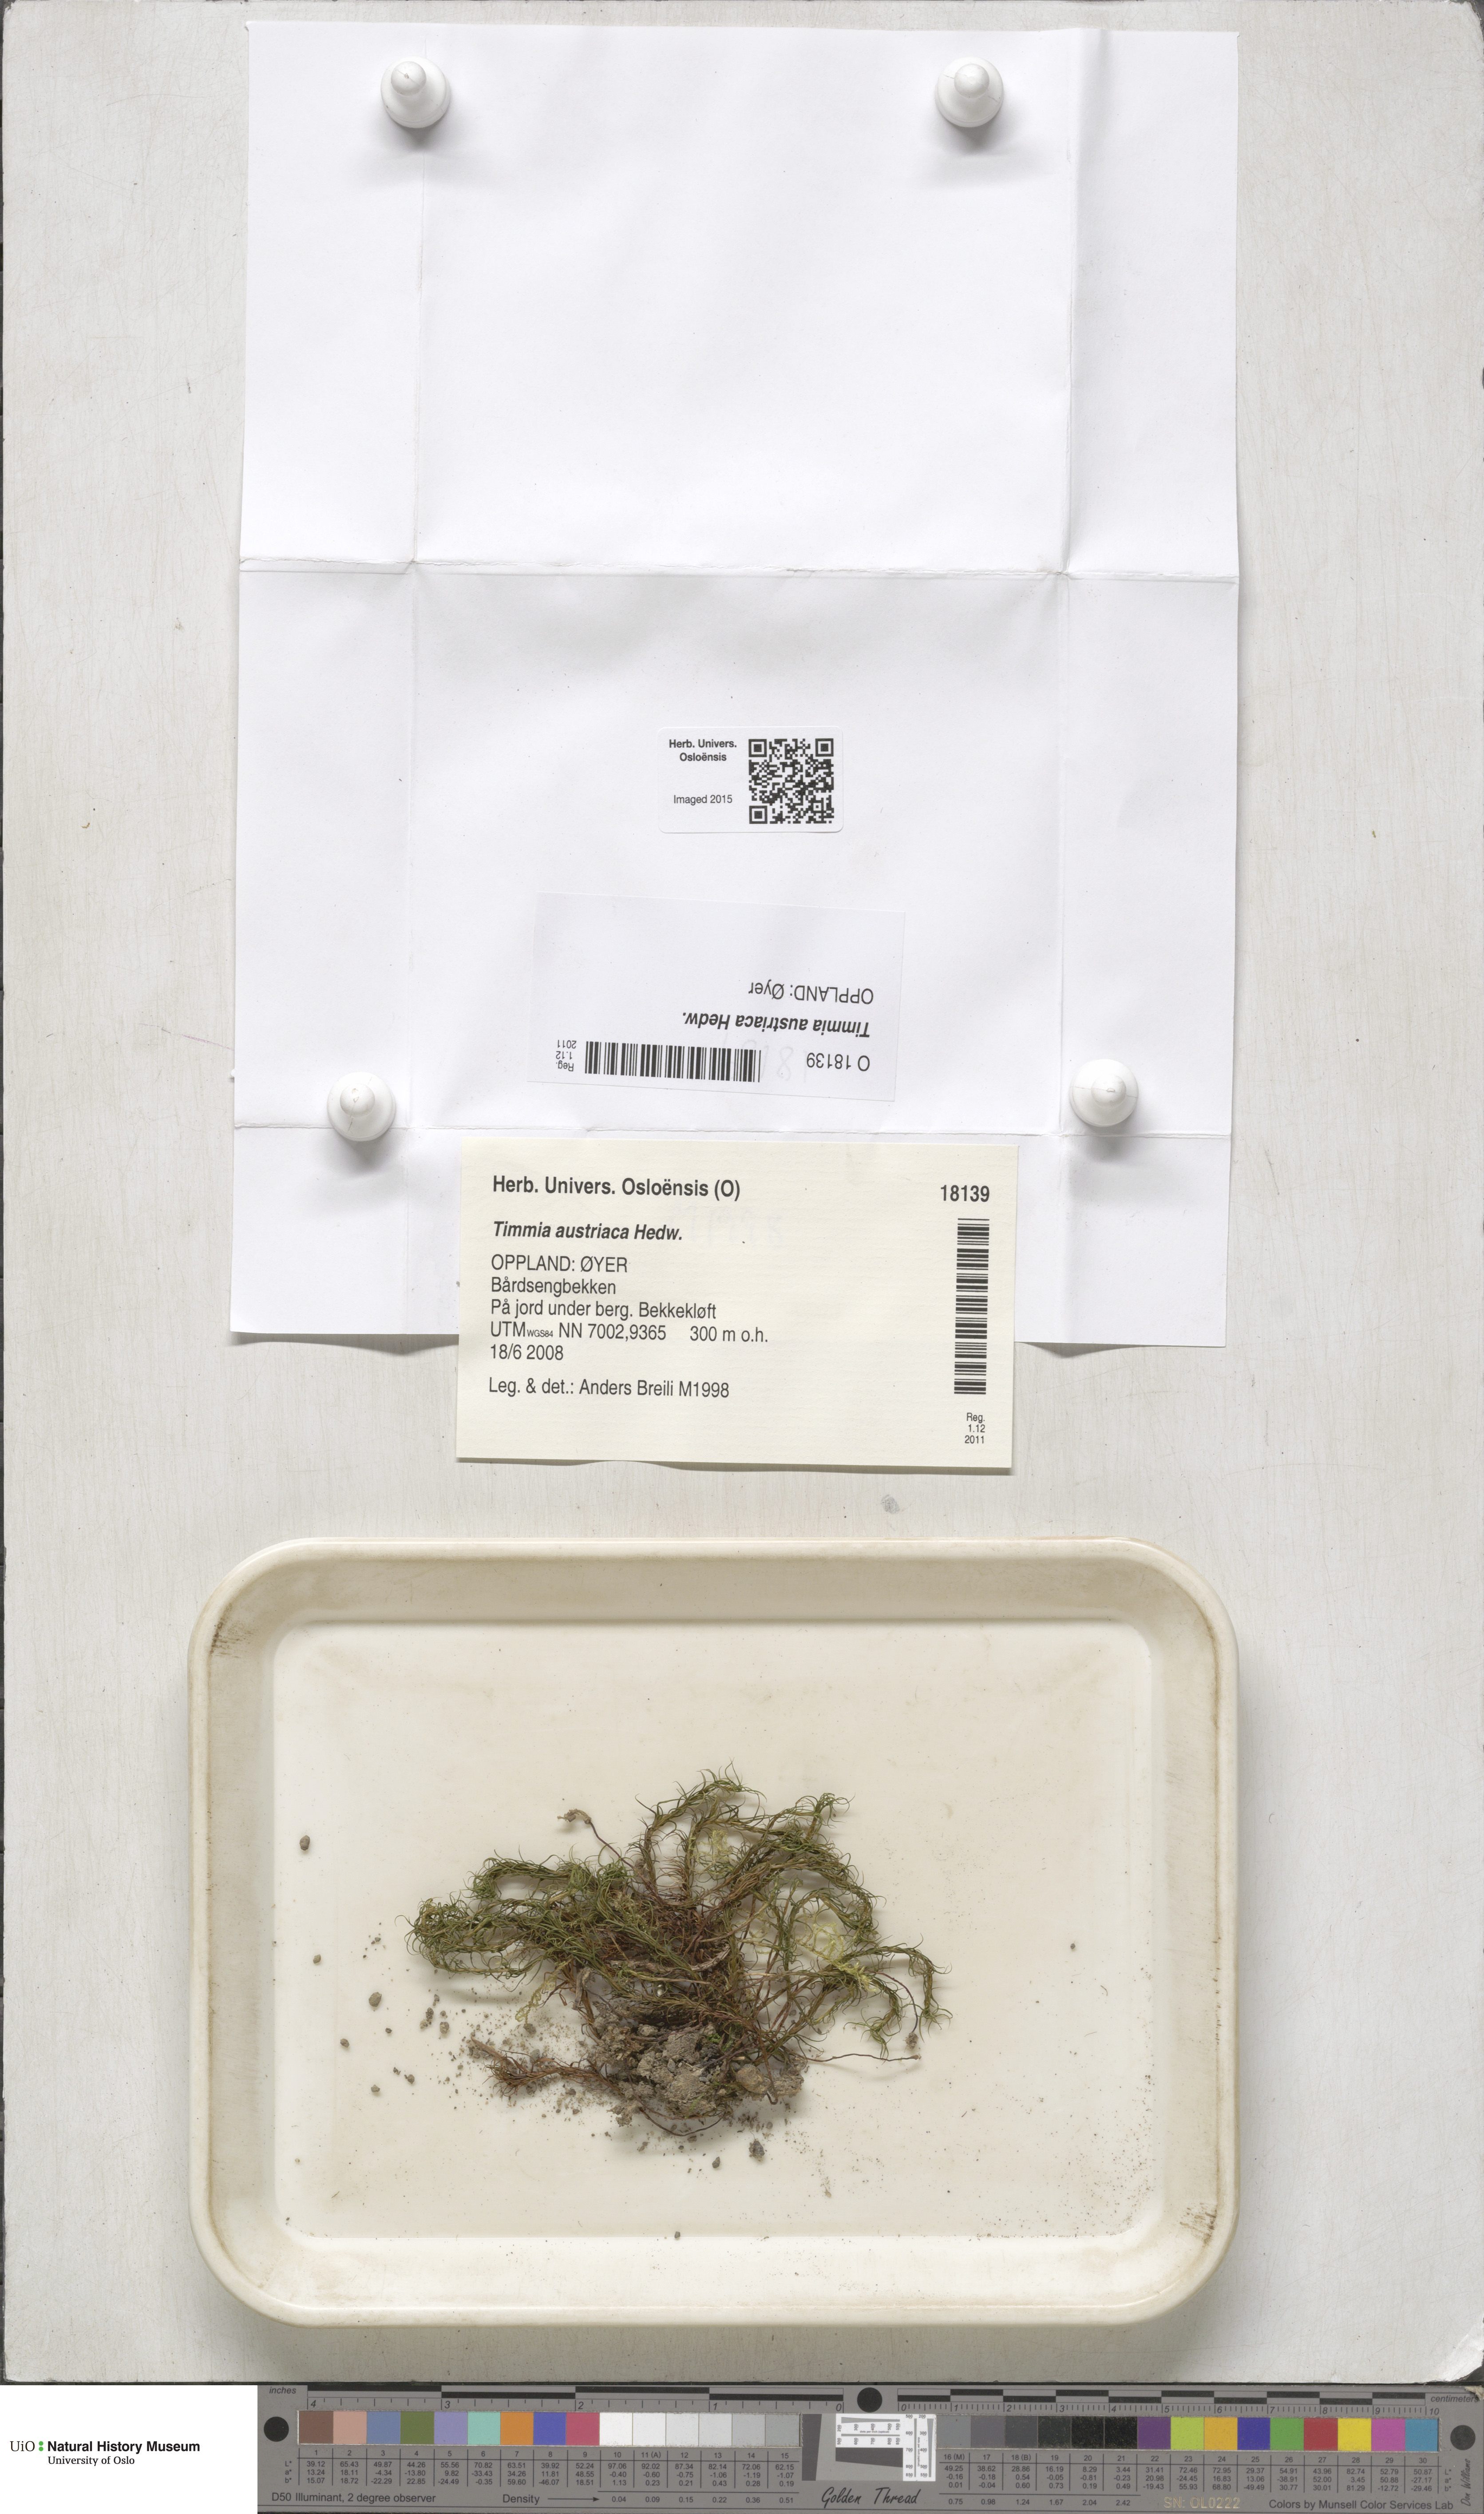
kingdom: Plantae
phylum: Bryophyta
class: Bryopsida
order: Timmiales
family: Timmiaceae
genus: Timmia
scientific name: Timmia austriaca
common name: Austrian timmia
